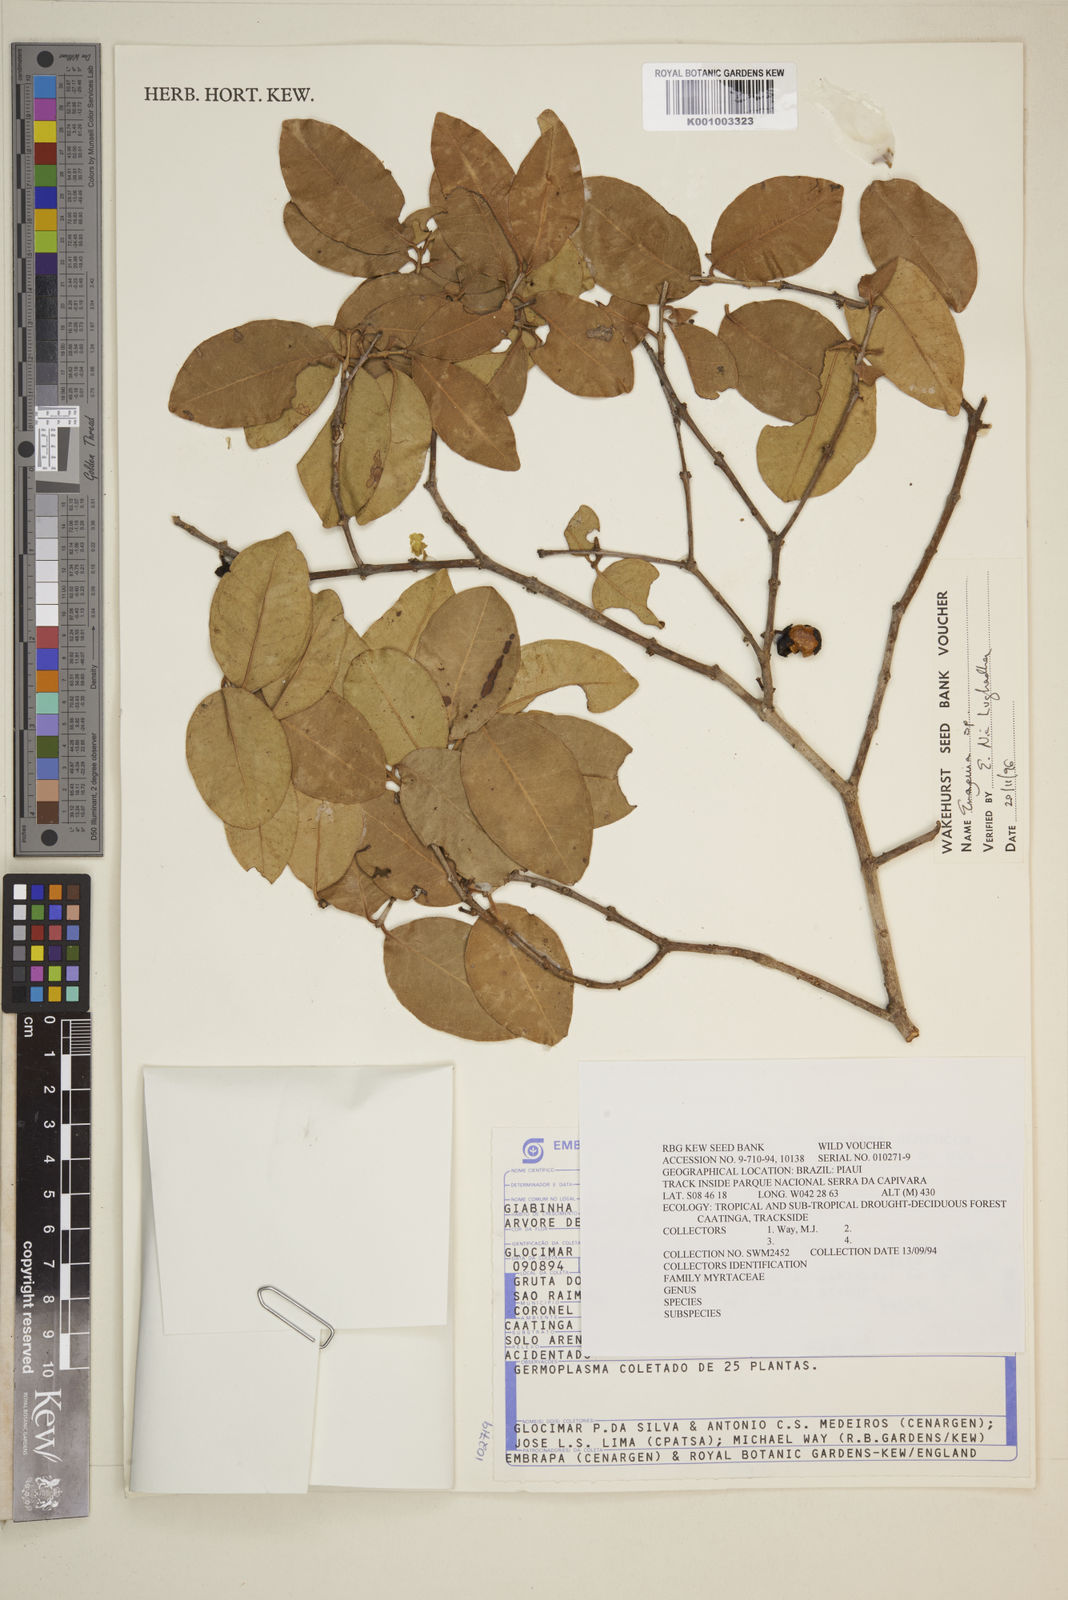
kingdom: Plantae
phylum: Tracheophyta
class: Magnoliopsida
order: Myrtales
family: Myrtaceae
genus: Eugenia
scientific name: Eugenia
